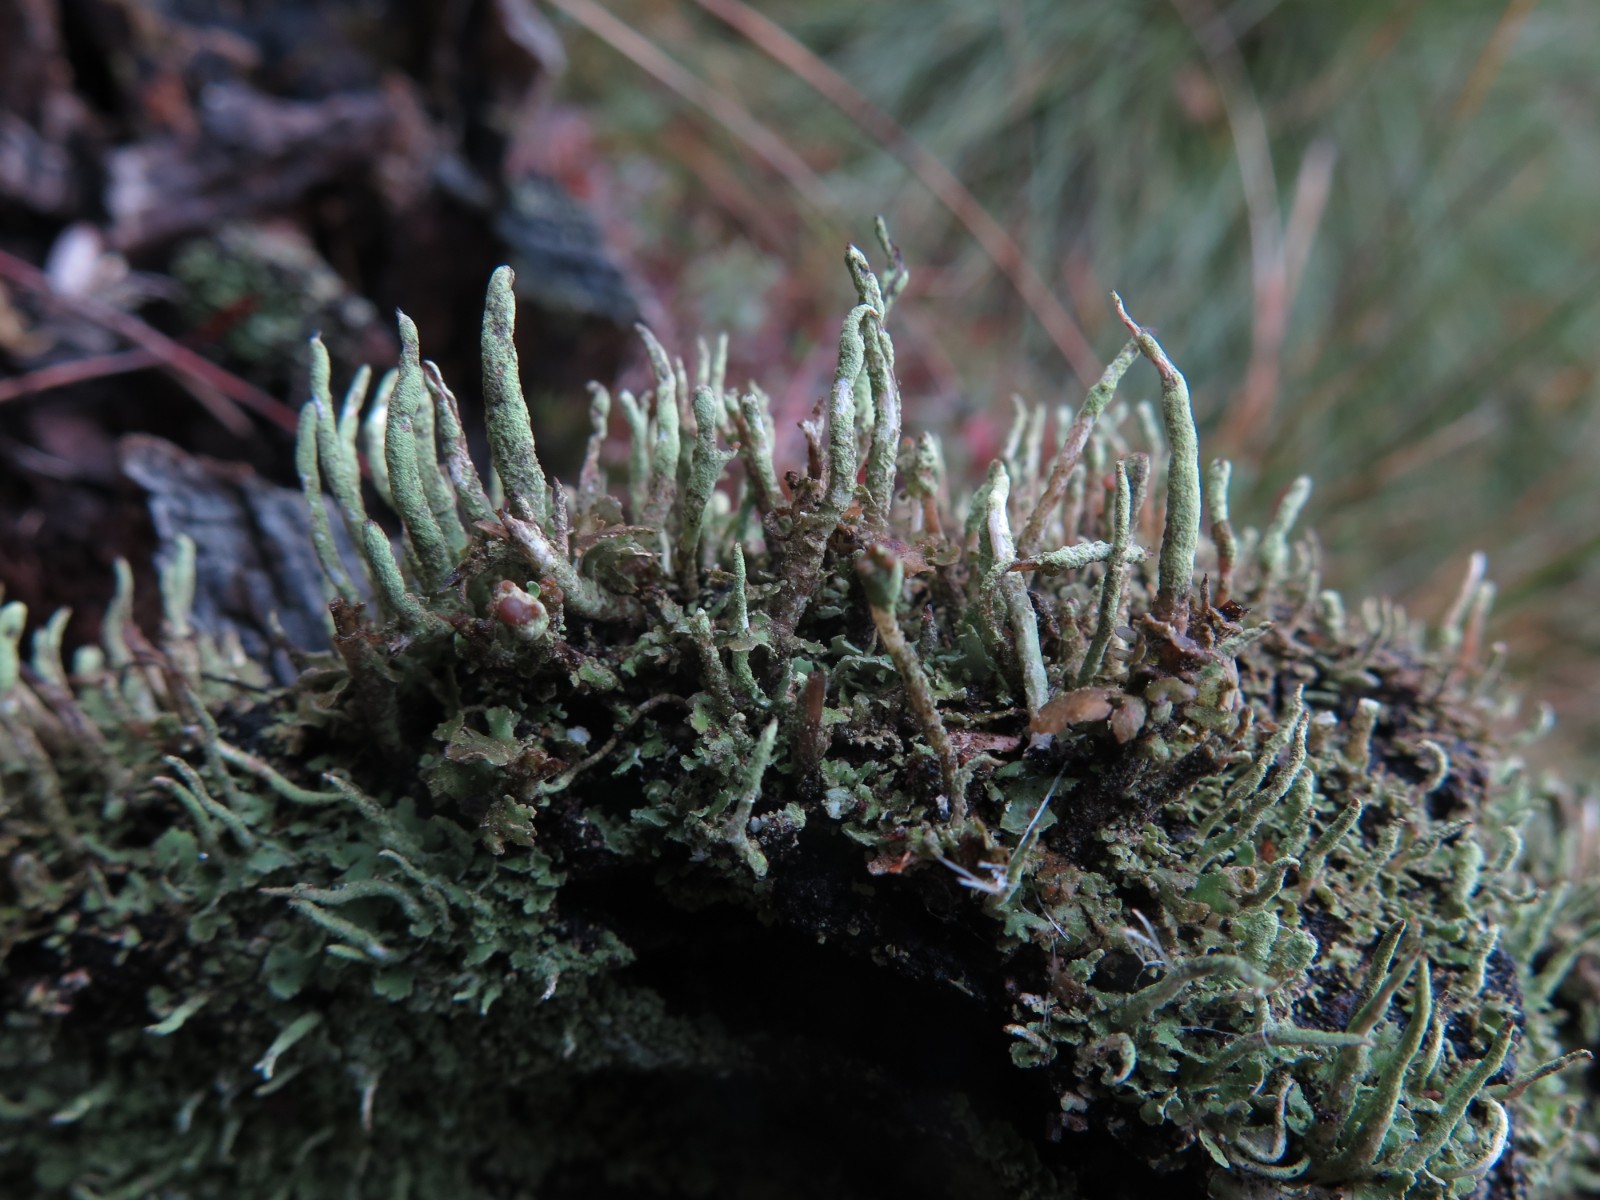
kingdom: Fungi
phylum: Ascomycota
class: Lecanoromycetes
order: Lecanorales
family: Cladoniaceae
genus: Cladonia
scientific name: Cladonia coniocraea
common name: træfods-bægerlav
